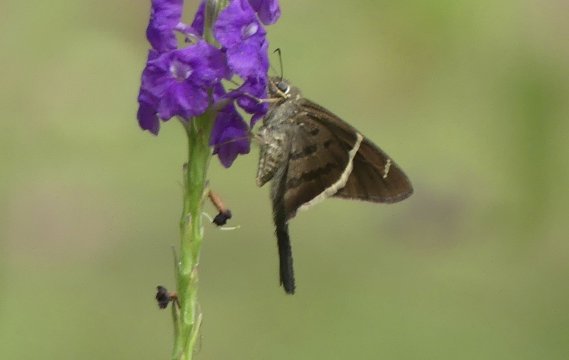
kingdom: Animalia
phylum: Arthropoda
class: Insecta
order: Lepidoptera
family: Hesperiidae
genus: Urbanus
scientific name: Urbanus tanna
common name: Tanna Longtail
